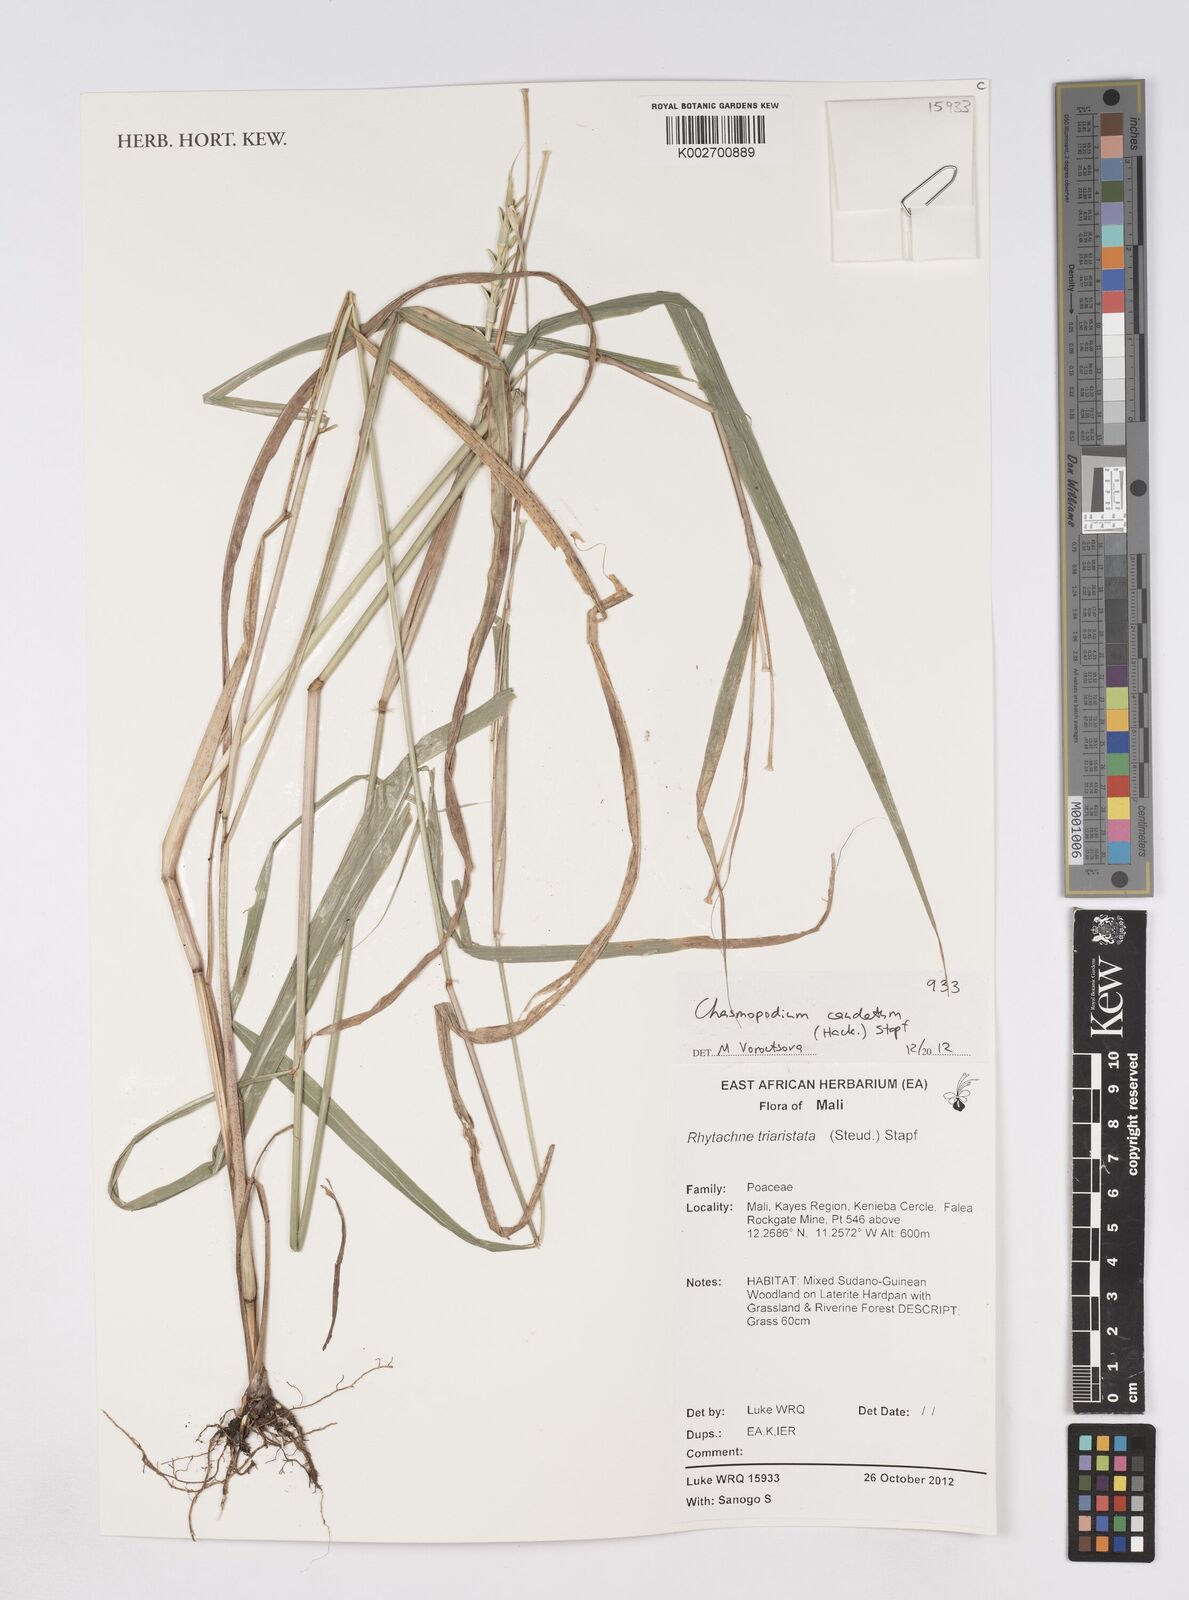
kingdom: Plantae
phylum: Tracheophyta
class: Liliopsida
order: Poales
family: Poaceae
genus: Chasmopodium
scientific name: Chasmopodium caudatum
